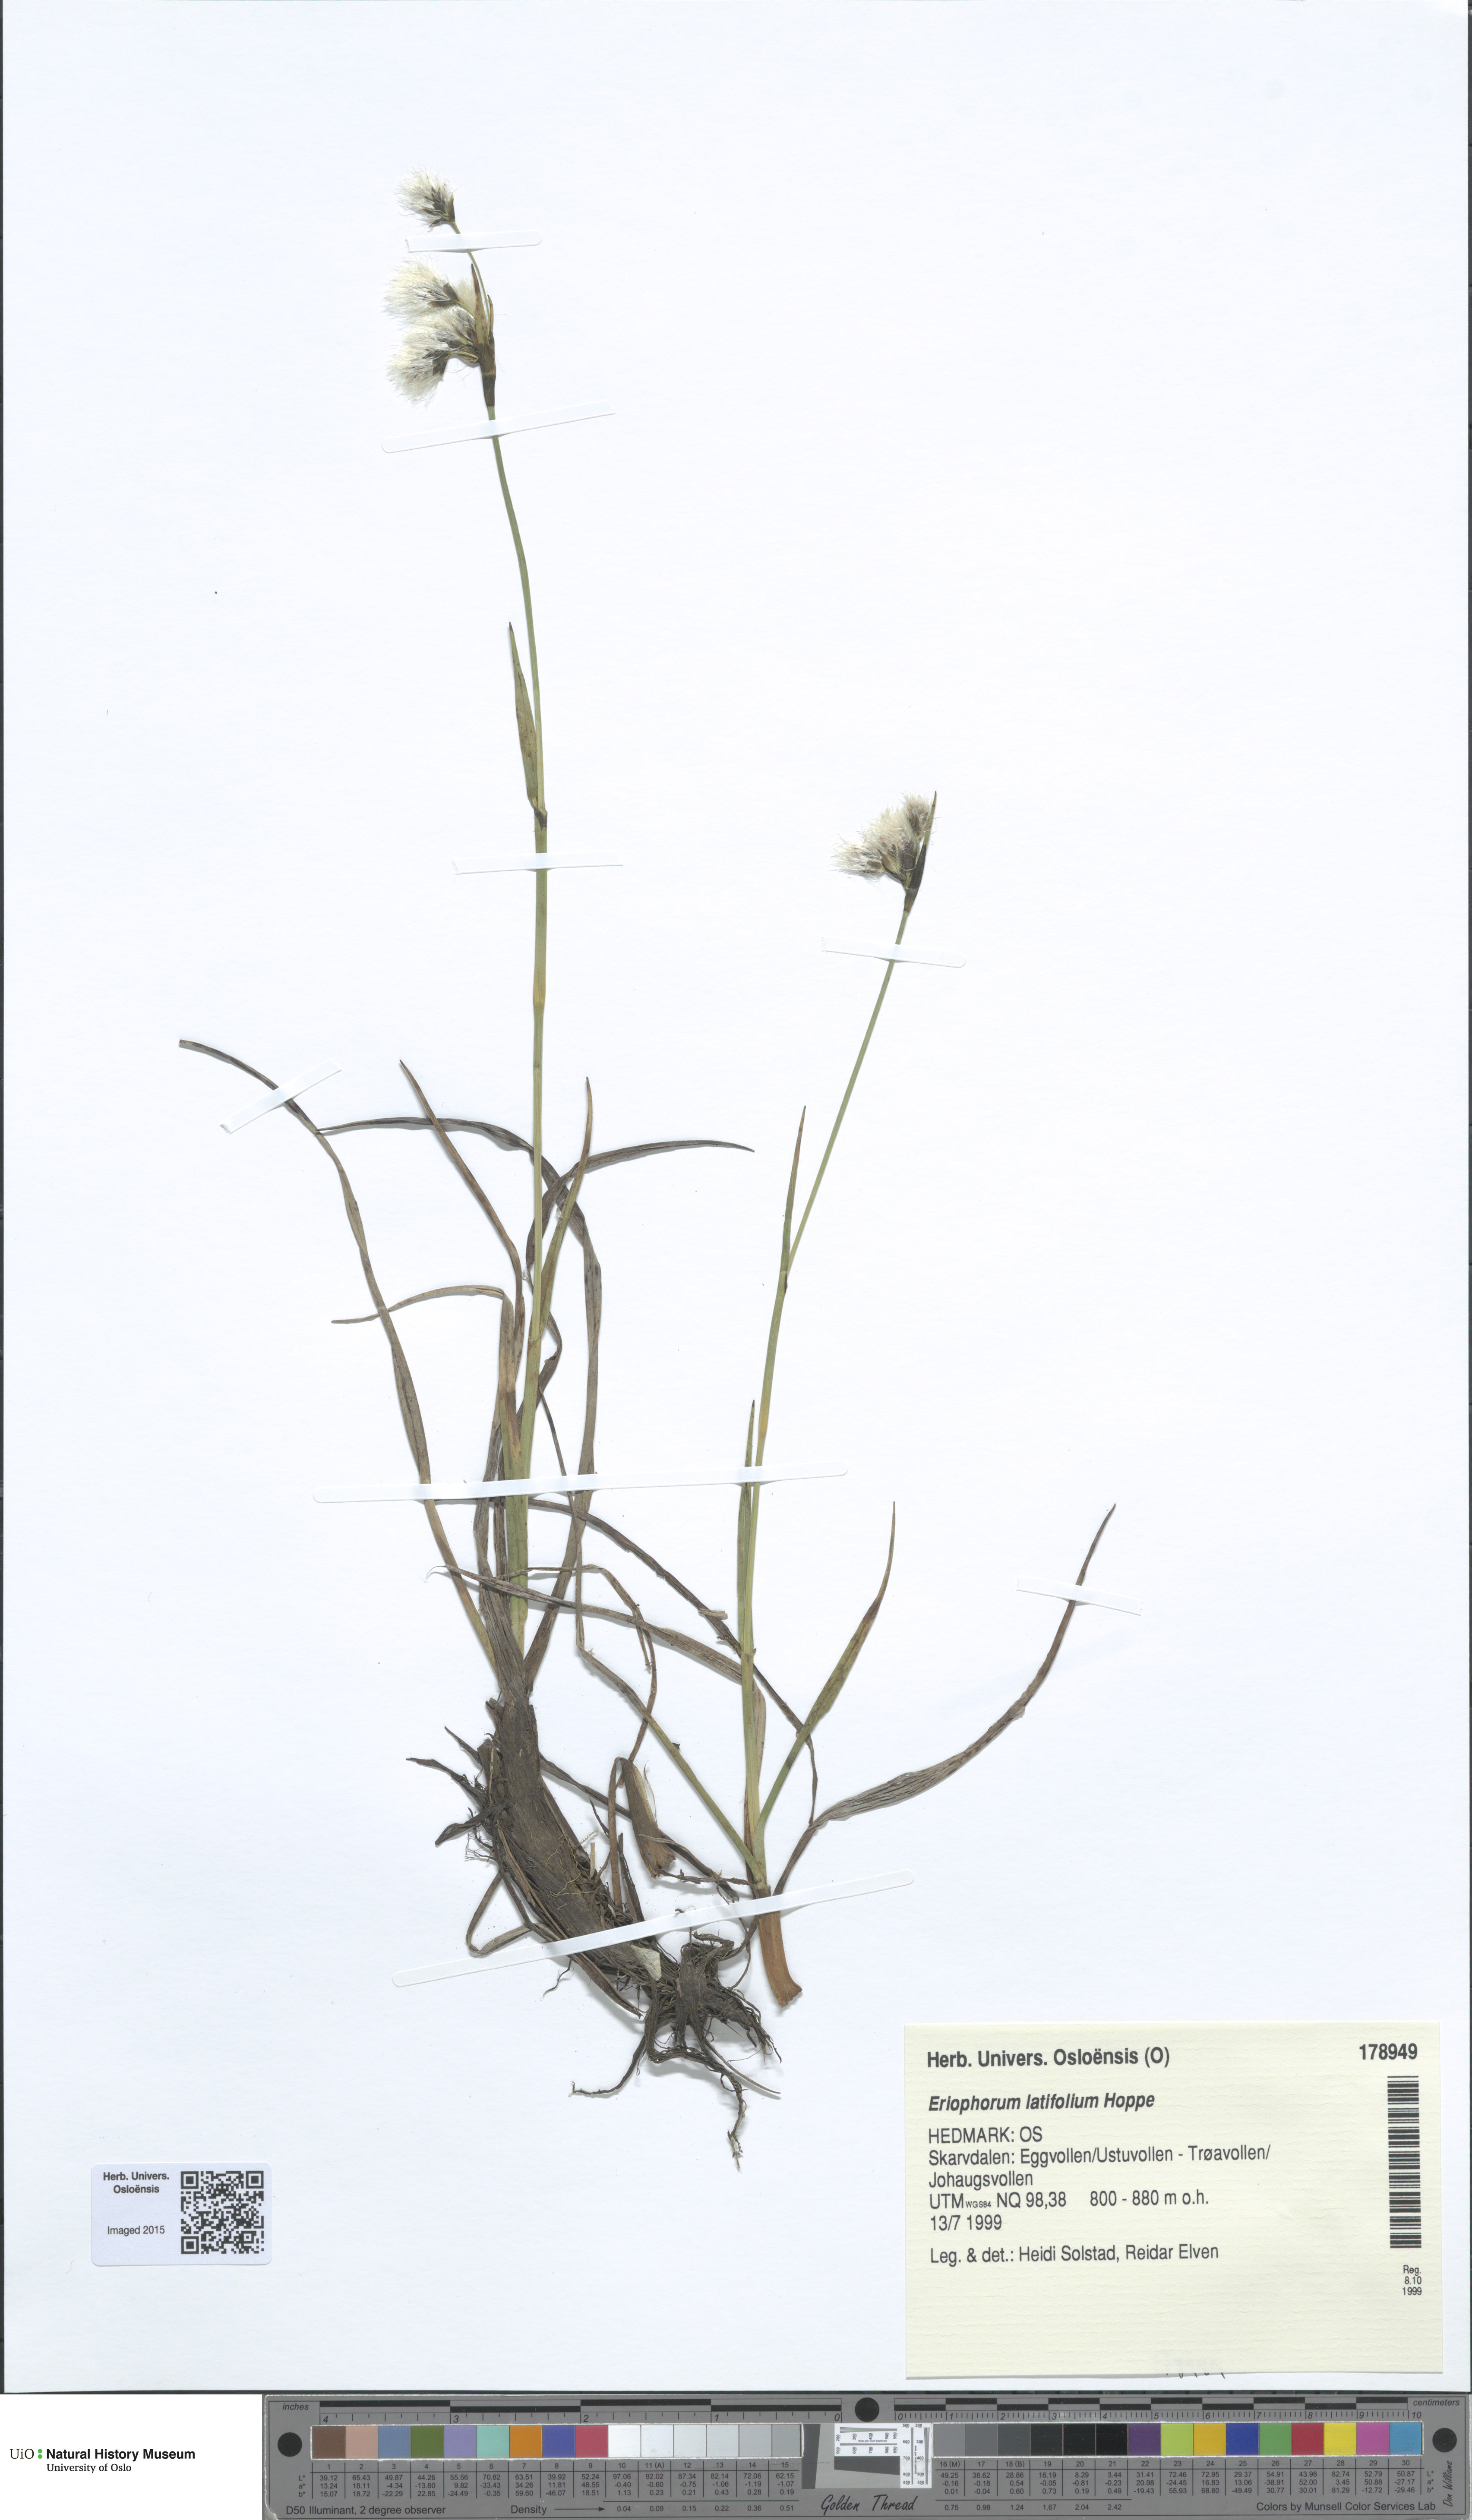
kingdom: Plantae
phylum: Tracheophyta
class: Liliopsida
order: Poales
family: Cyperaceae
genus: Eriophorum
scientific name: Eriophorum latifolium
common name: Broad-leaved cottongrass
